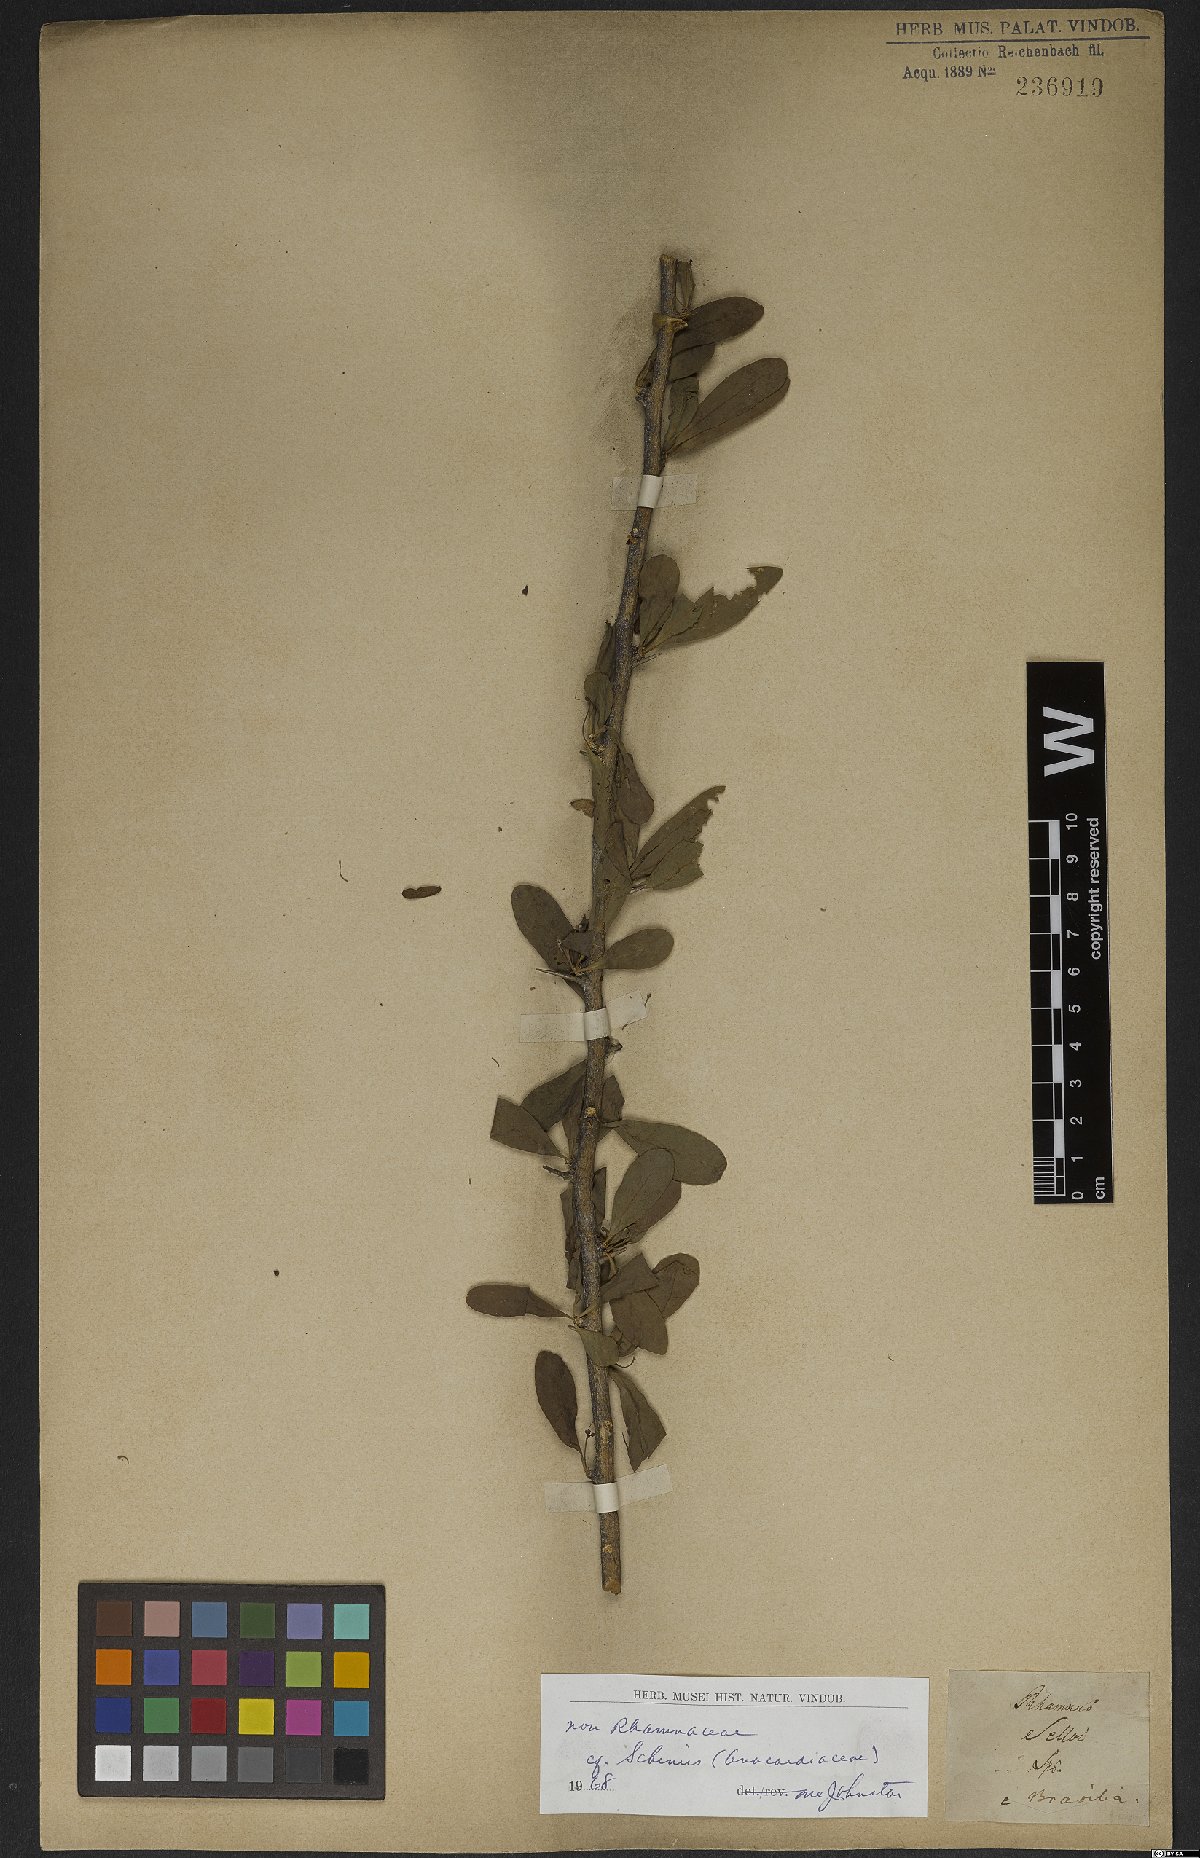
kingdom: Plantae
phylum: Tracheophyta
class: Magnoliopsida
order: Sapindales
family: Anacardiaceae
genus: Schinus
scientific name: Schinus
